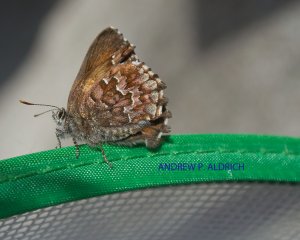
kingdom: Animalia
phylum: Arthropoda
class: Insecta
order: Lepidoptera
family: Lycaenidae
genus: Incisalia
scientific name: Incisalia niphon
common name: Eastern Pine Elfin
